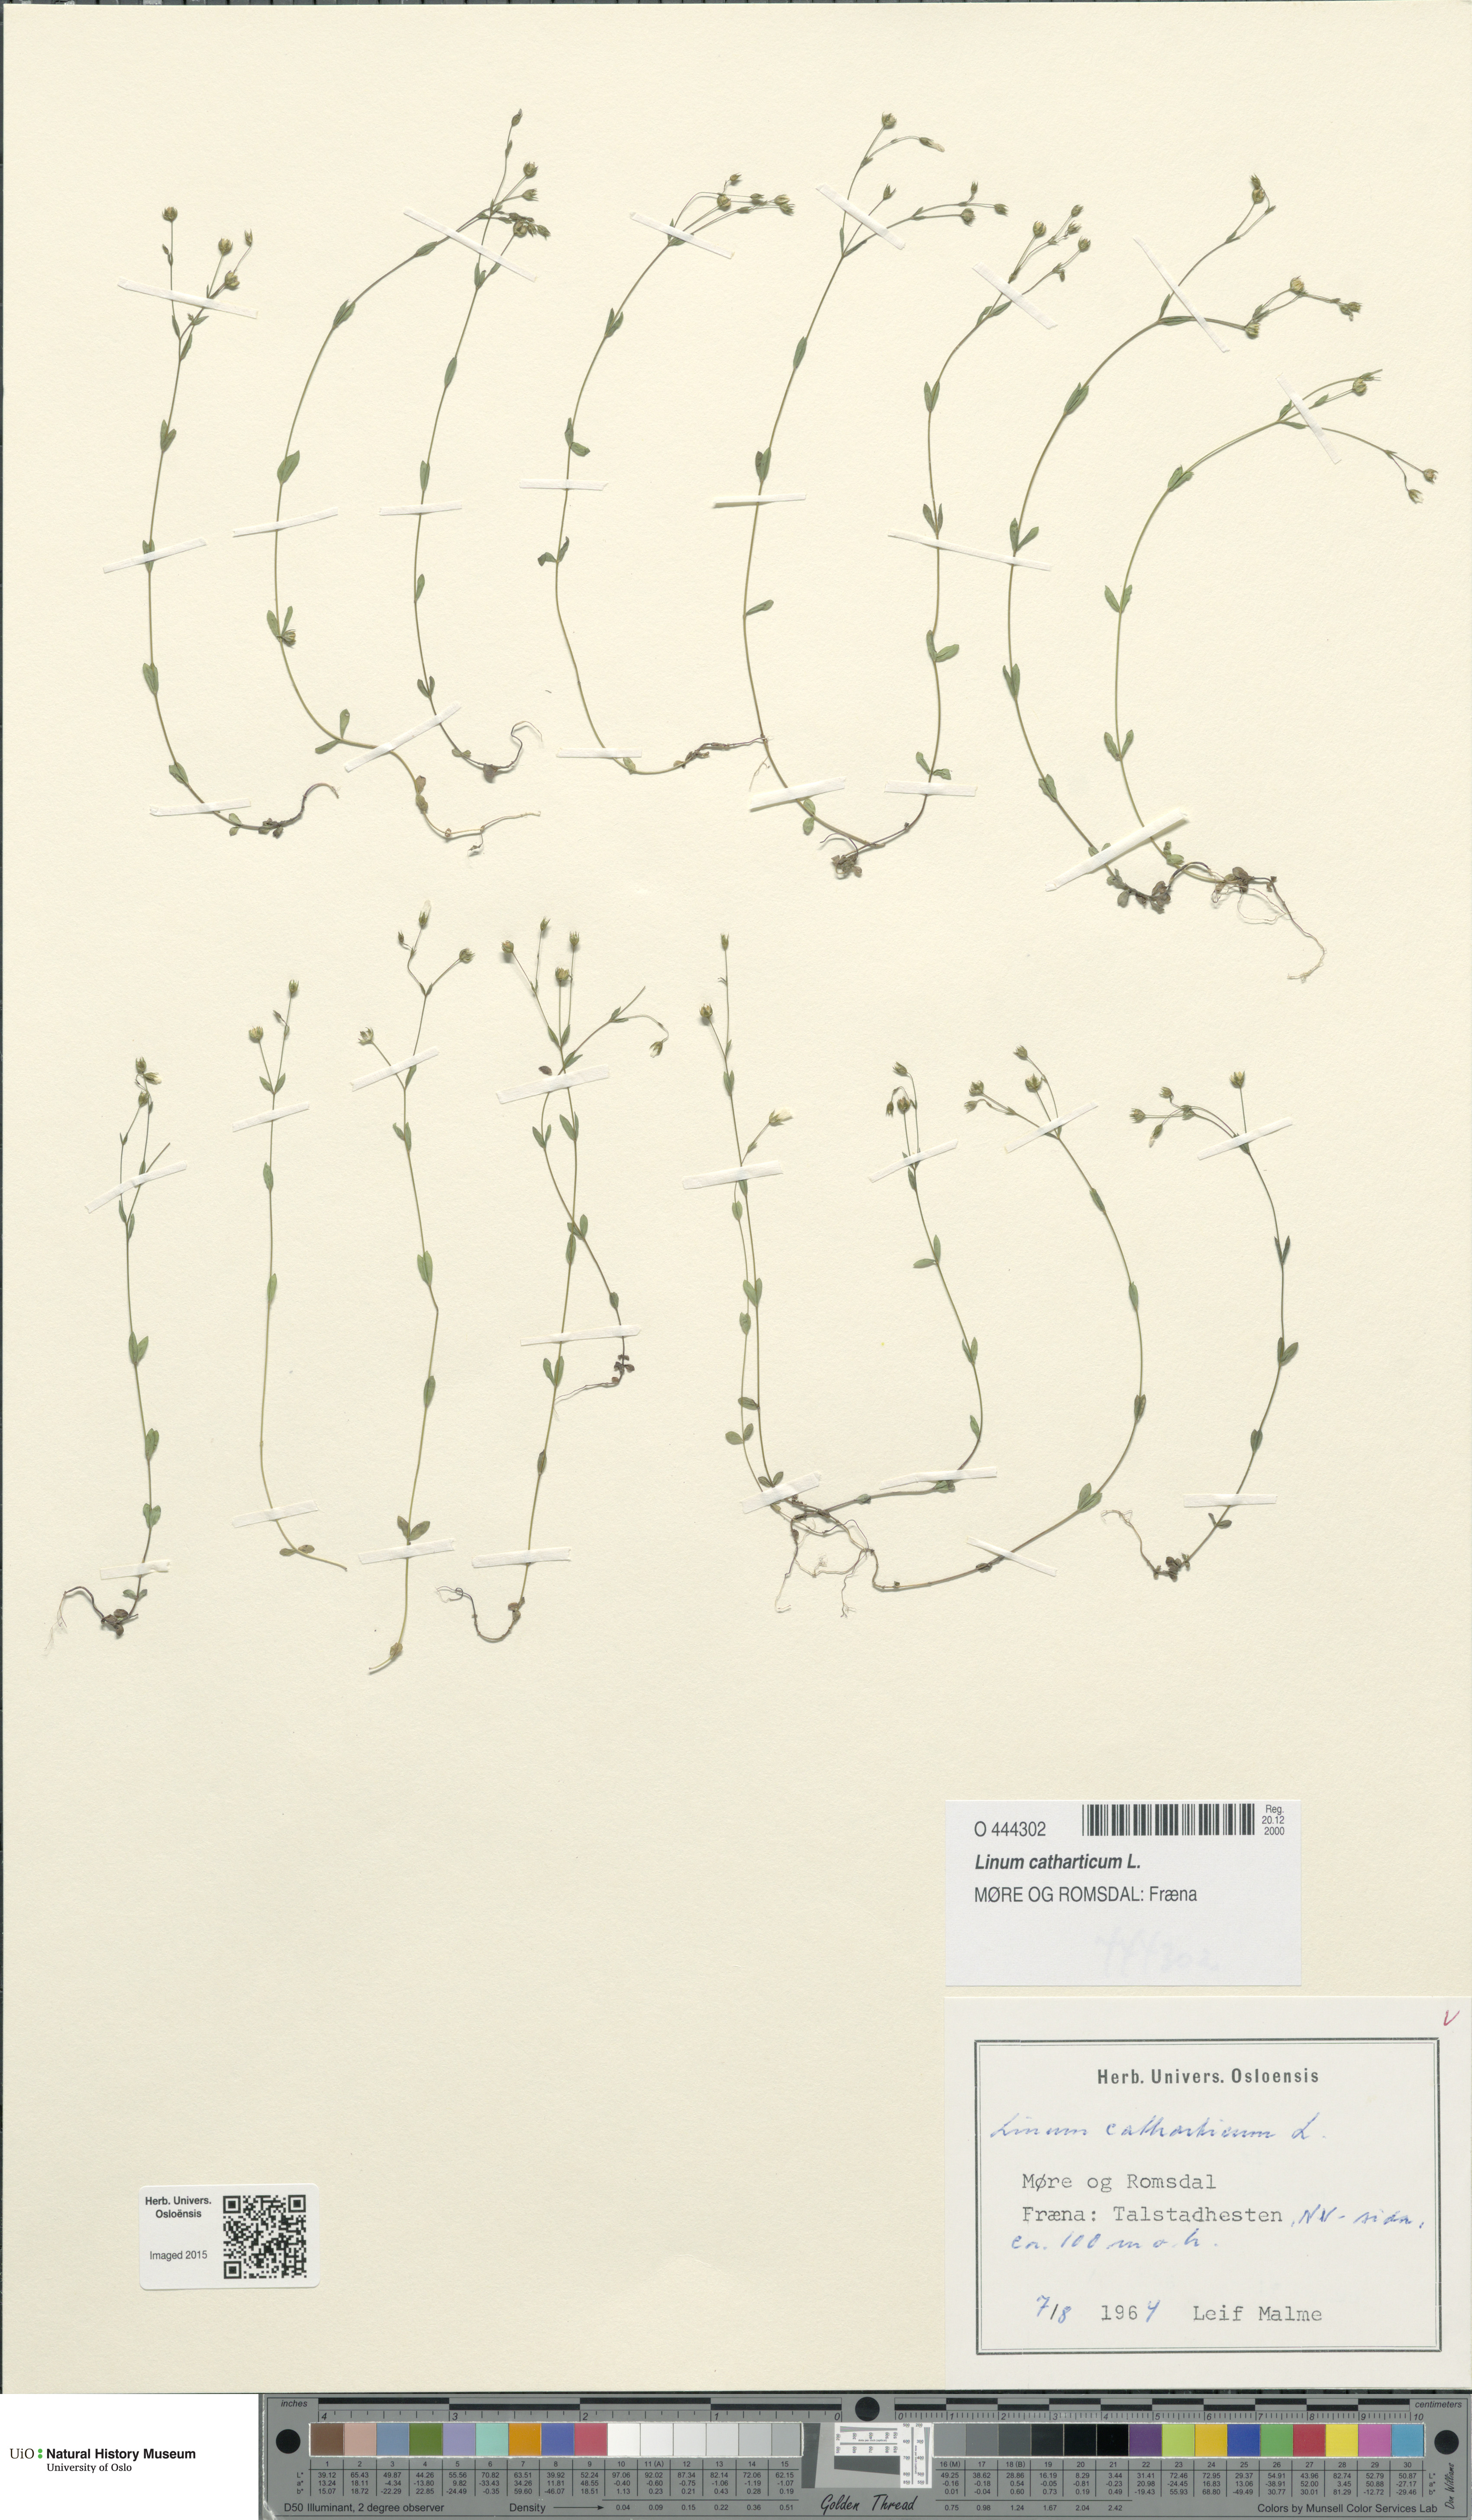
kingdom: Plantae
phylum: Tracheophyta
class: Magnoliopsida
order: Malpighiales
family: Linaceae
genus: Linum
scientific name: Linum catharticum
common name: Fairy flax
